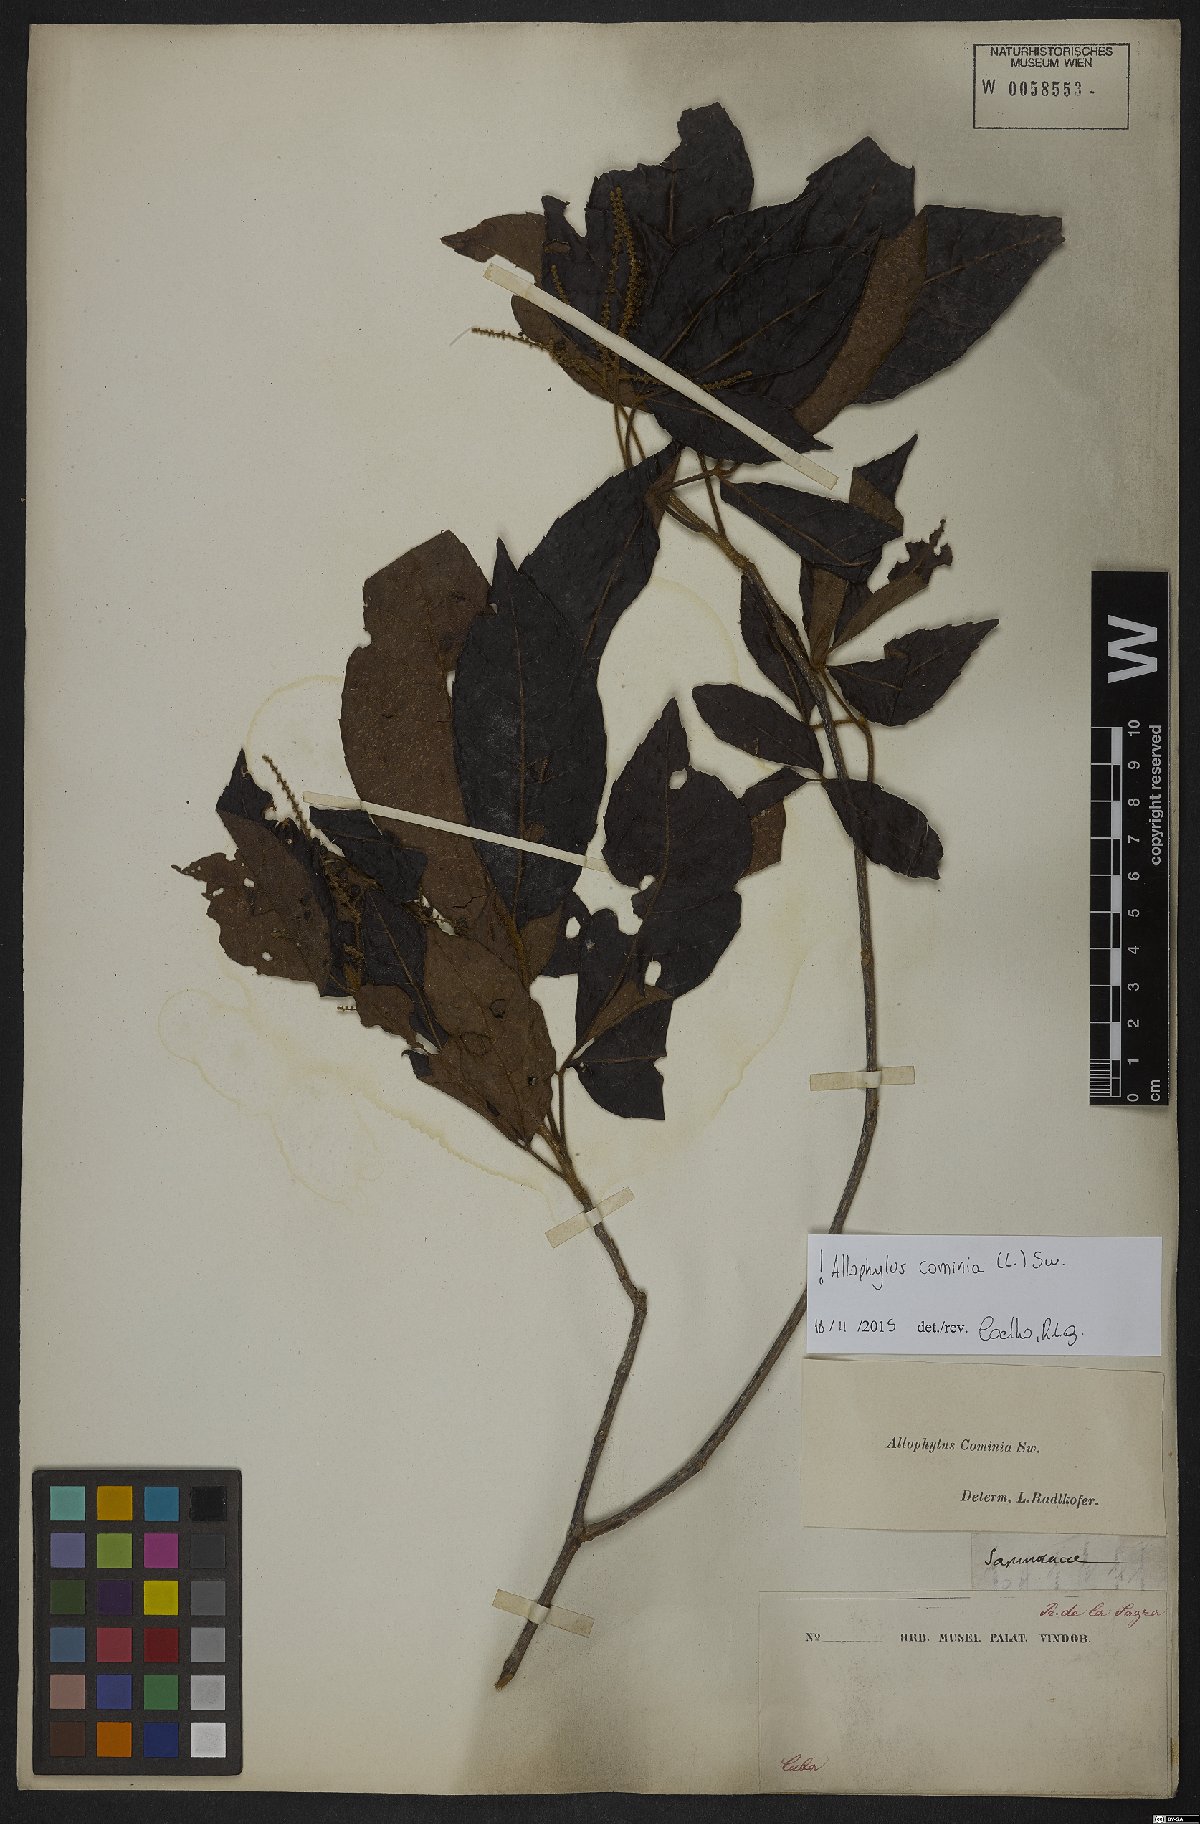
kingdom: Plantae
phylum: Tracheophyta
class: Magnoliopsida
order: Sapindales
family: Sapindaceae
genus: Allophylus
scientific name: Allophylus cominia
